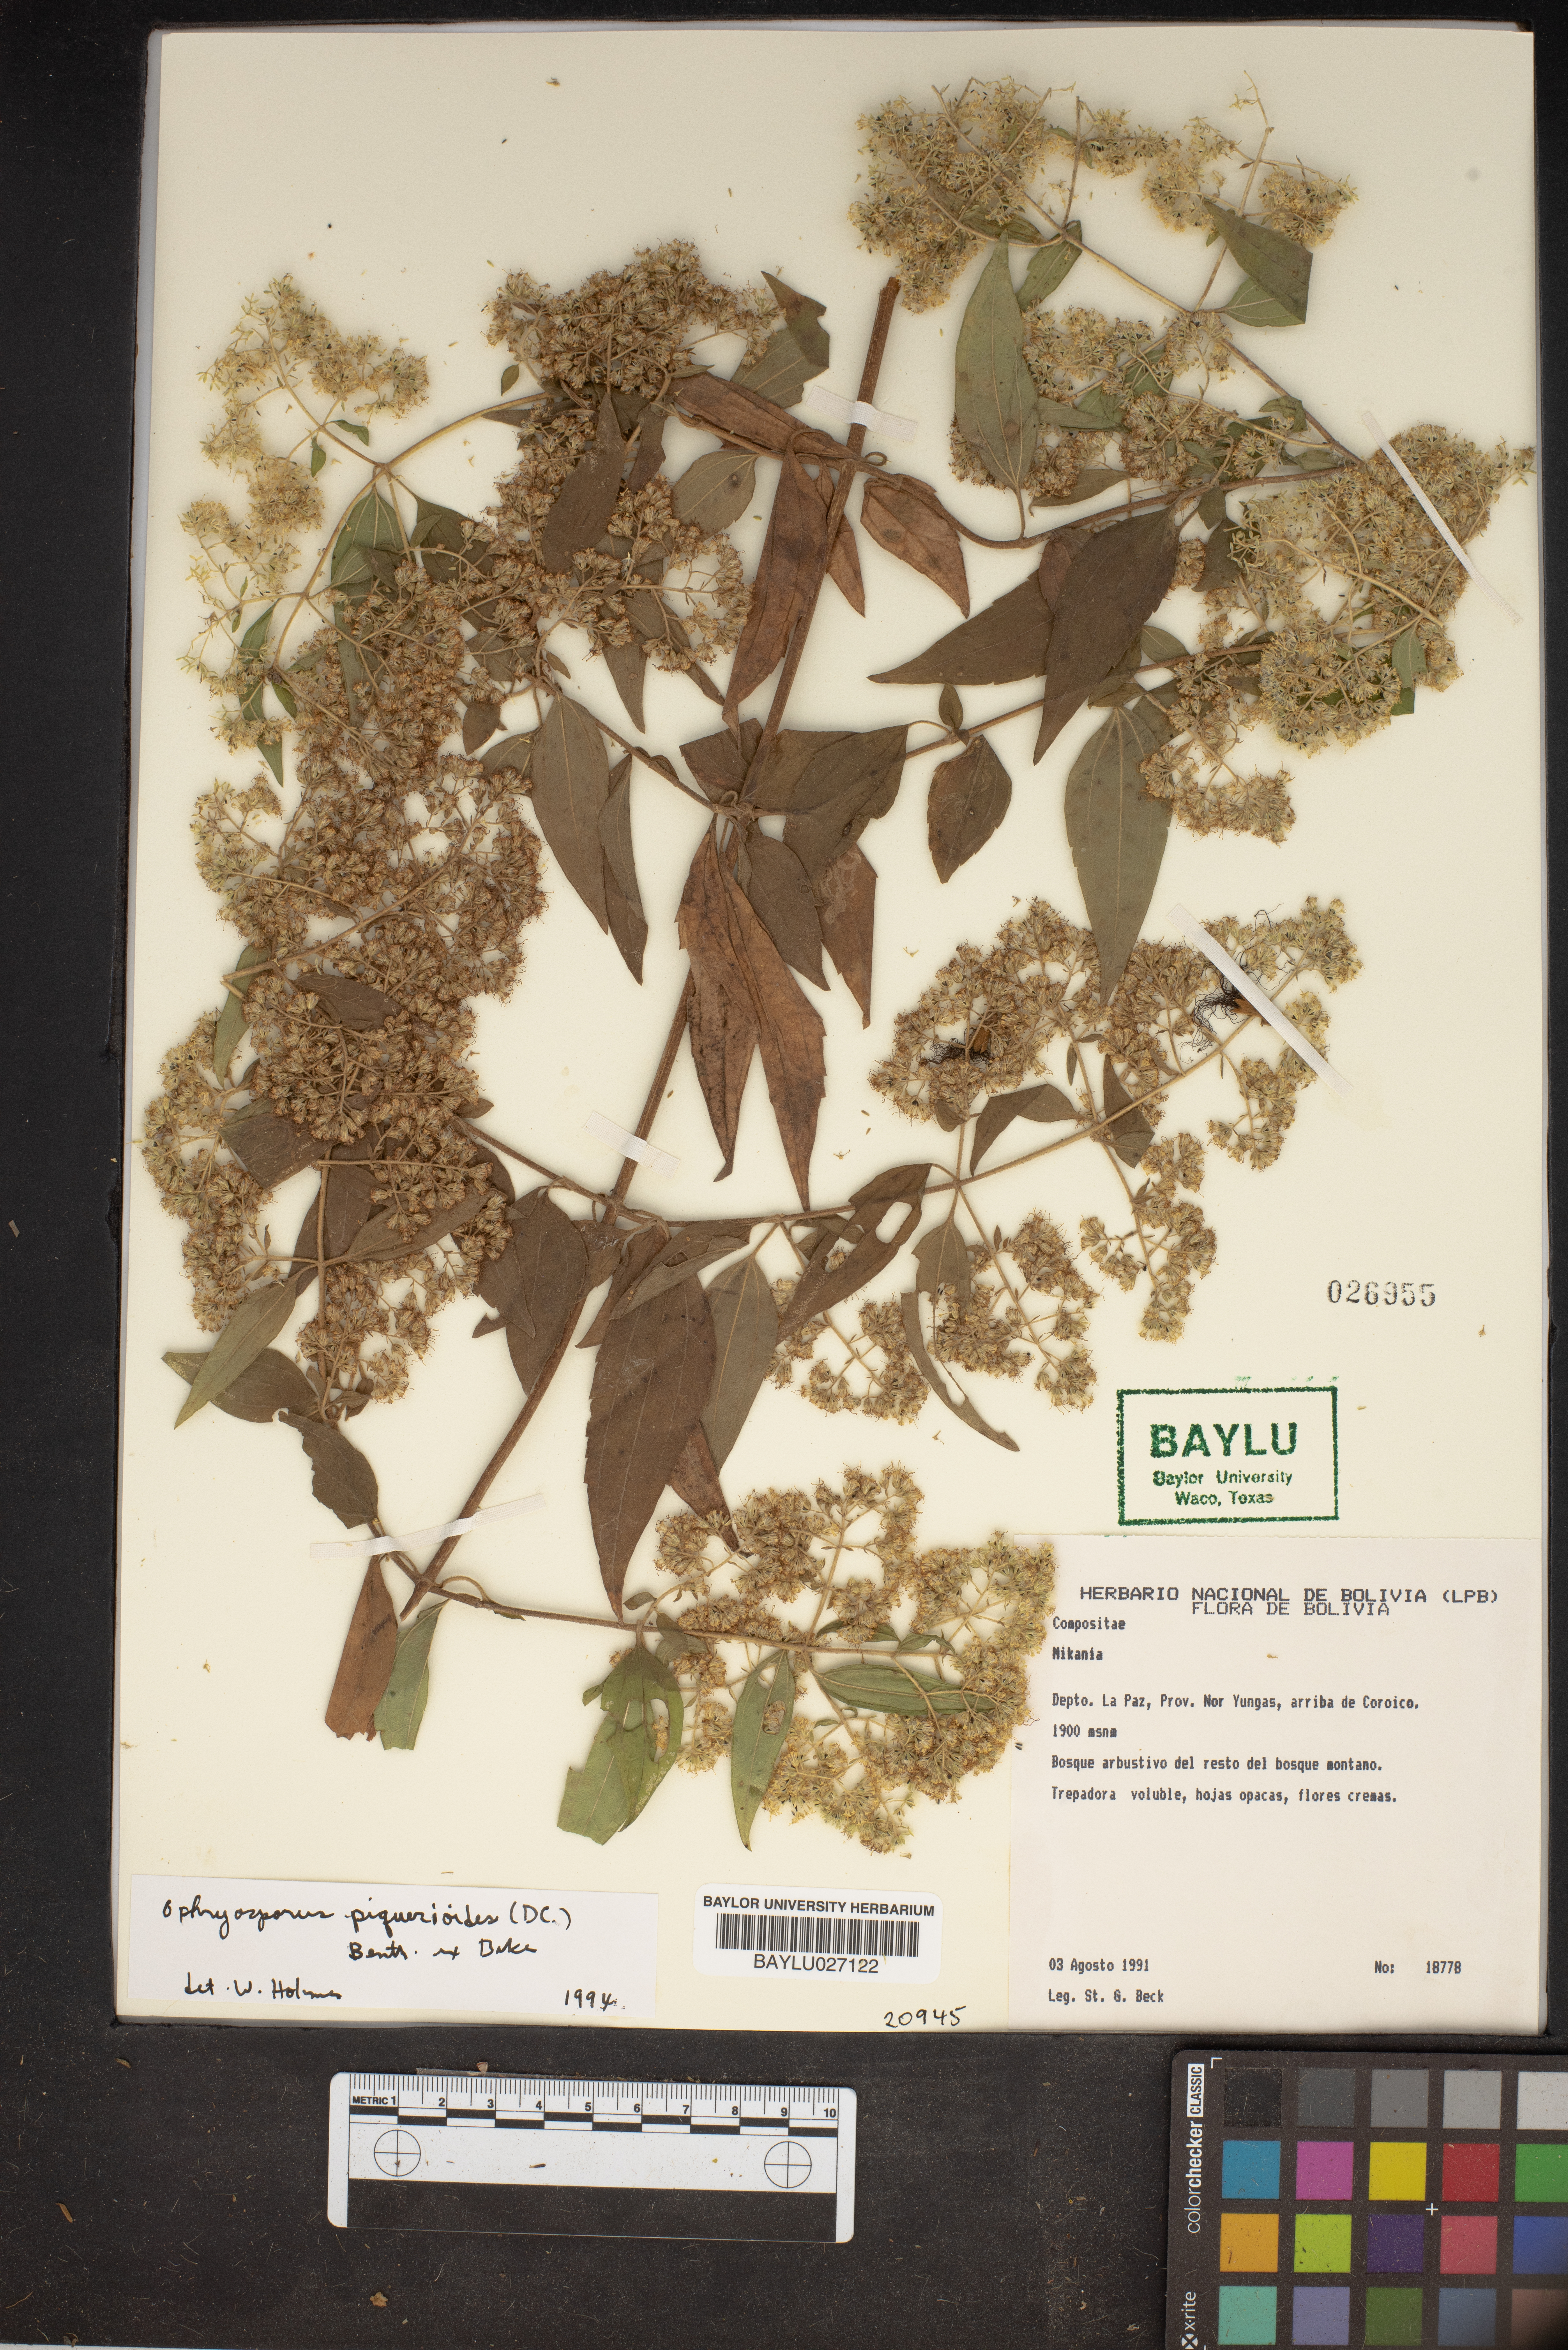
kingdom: Plantae
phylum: Tracheophyta
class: Magnoliopsida
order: Asterales
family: Asteraceae
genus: Ophryosporus
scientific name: Ophryosporus piquerioides
